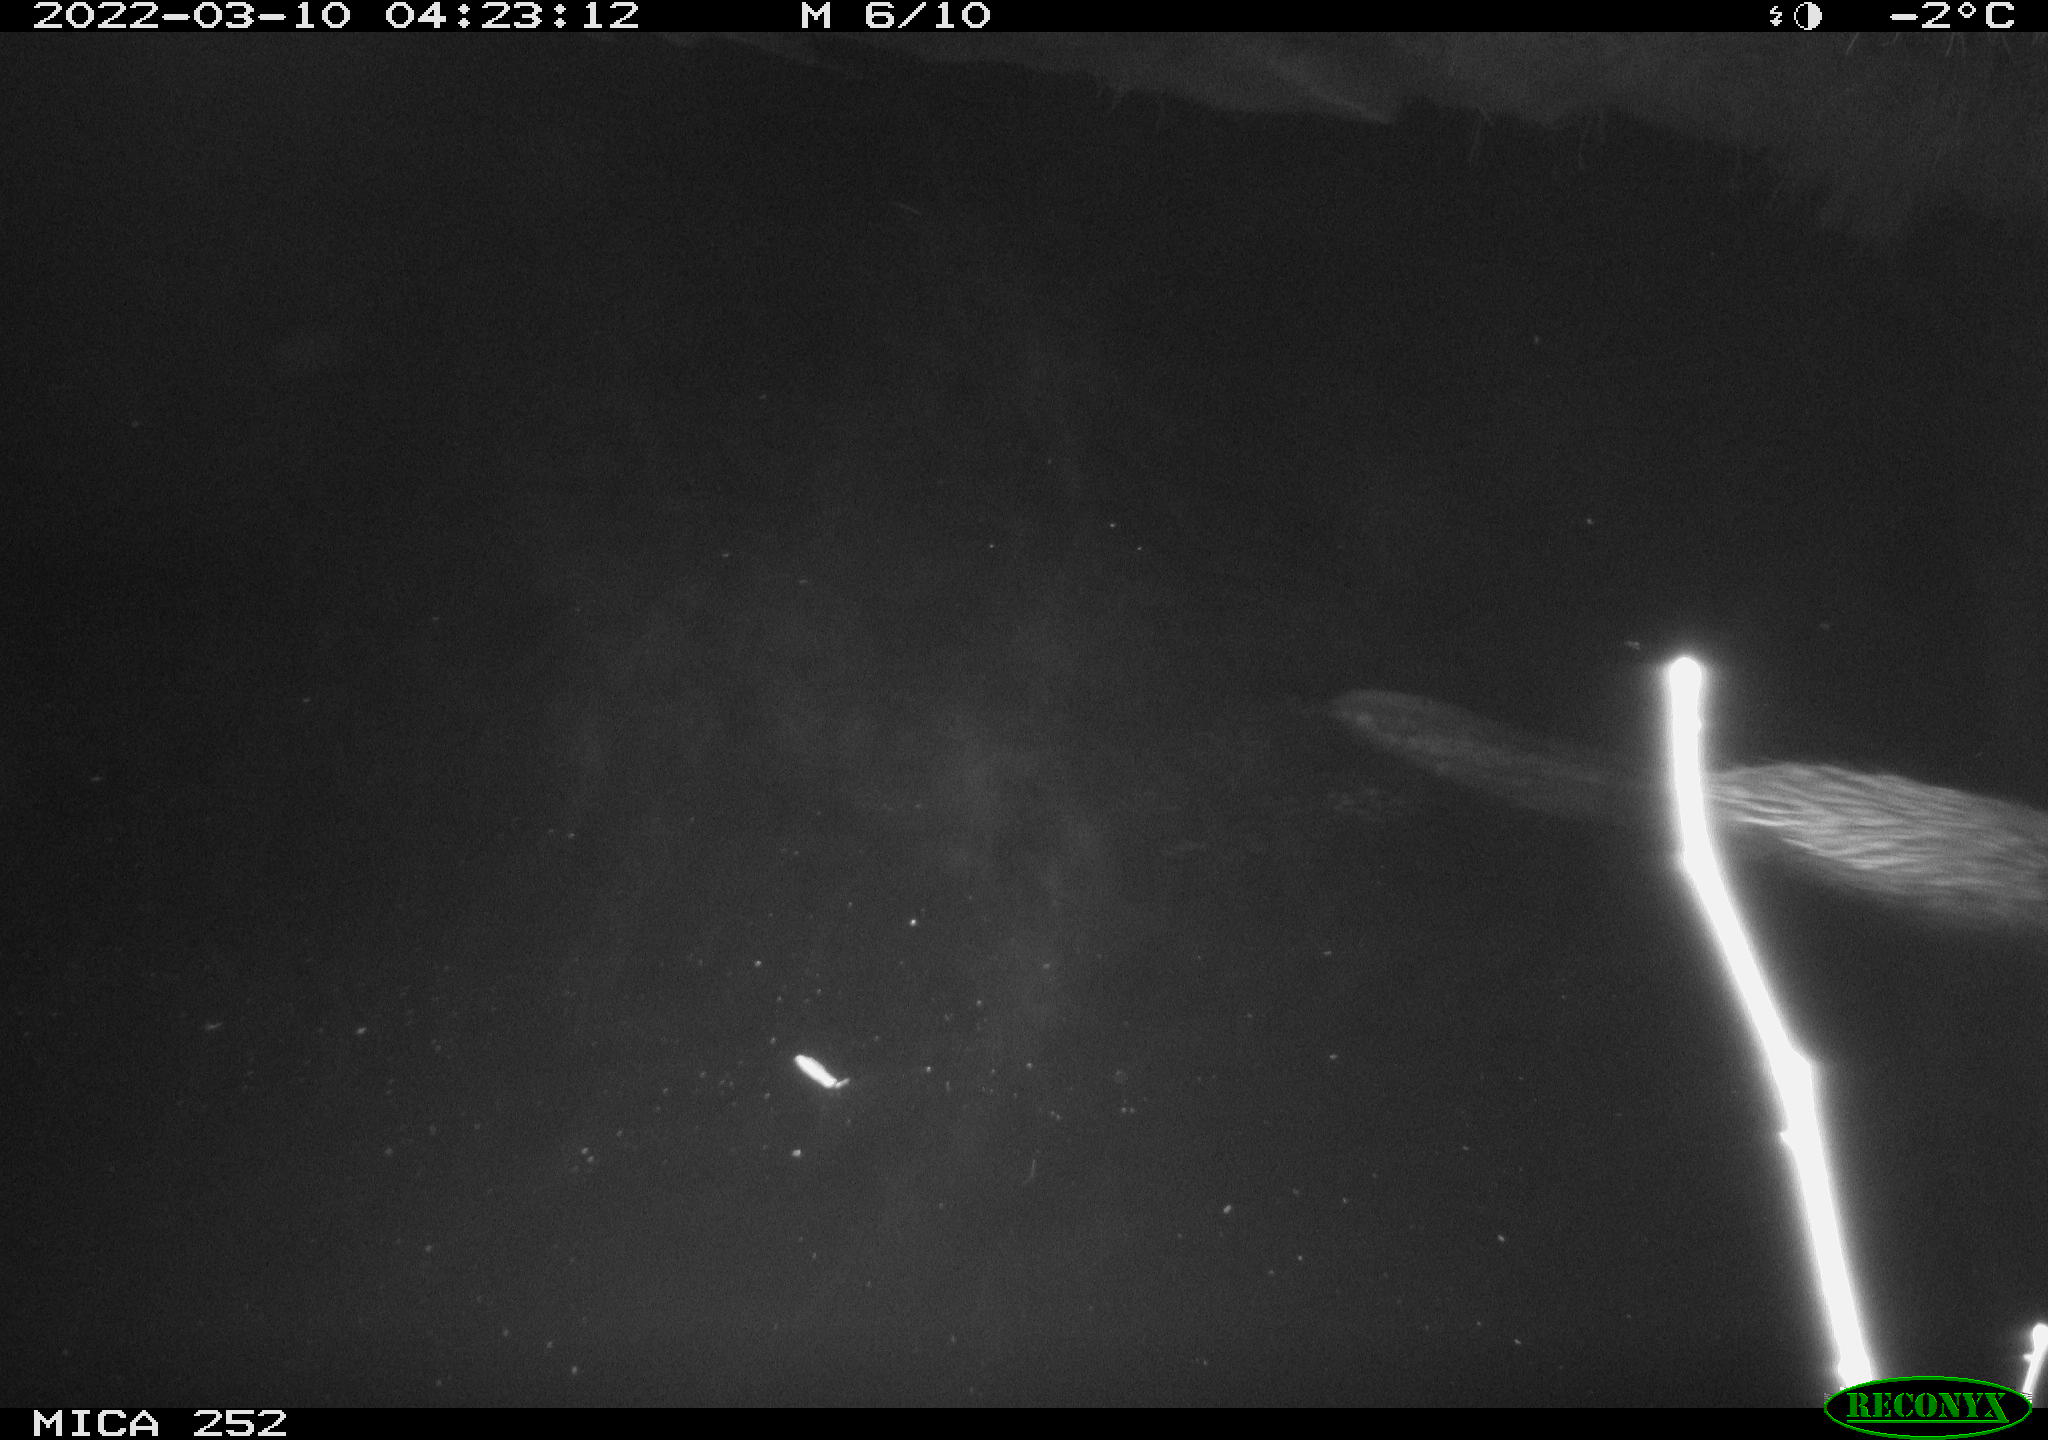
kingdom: Animalia
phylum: Chordata
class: Mammalia
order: Rodentia
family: Castoridae
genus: Castor
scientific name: Castor fiber
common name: Eurasian beaver
